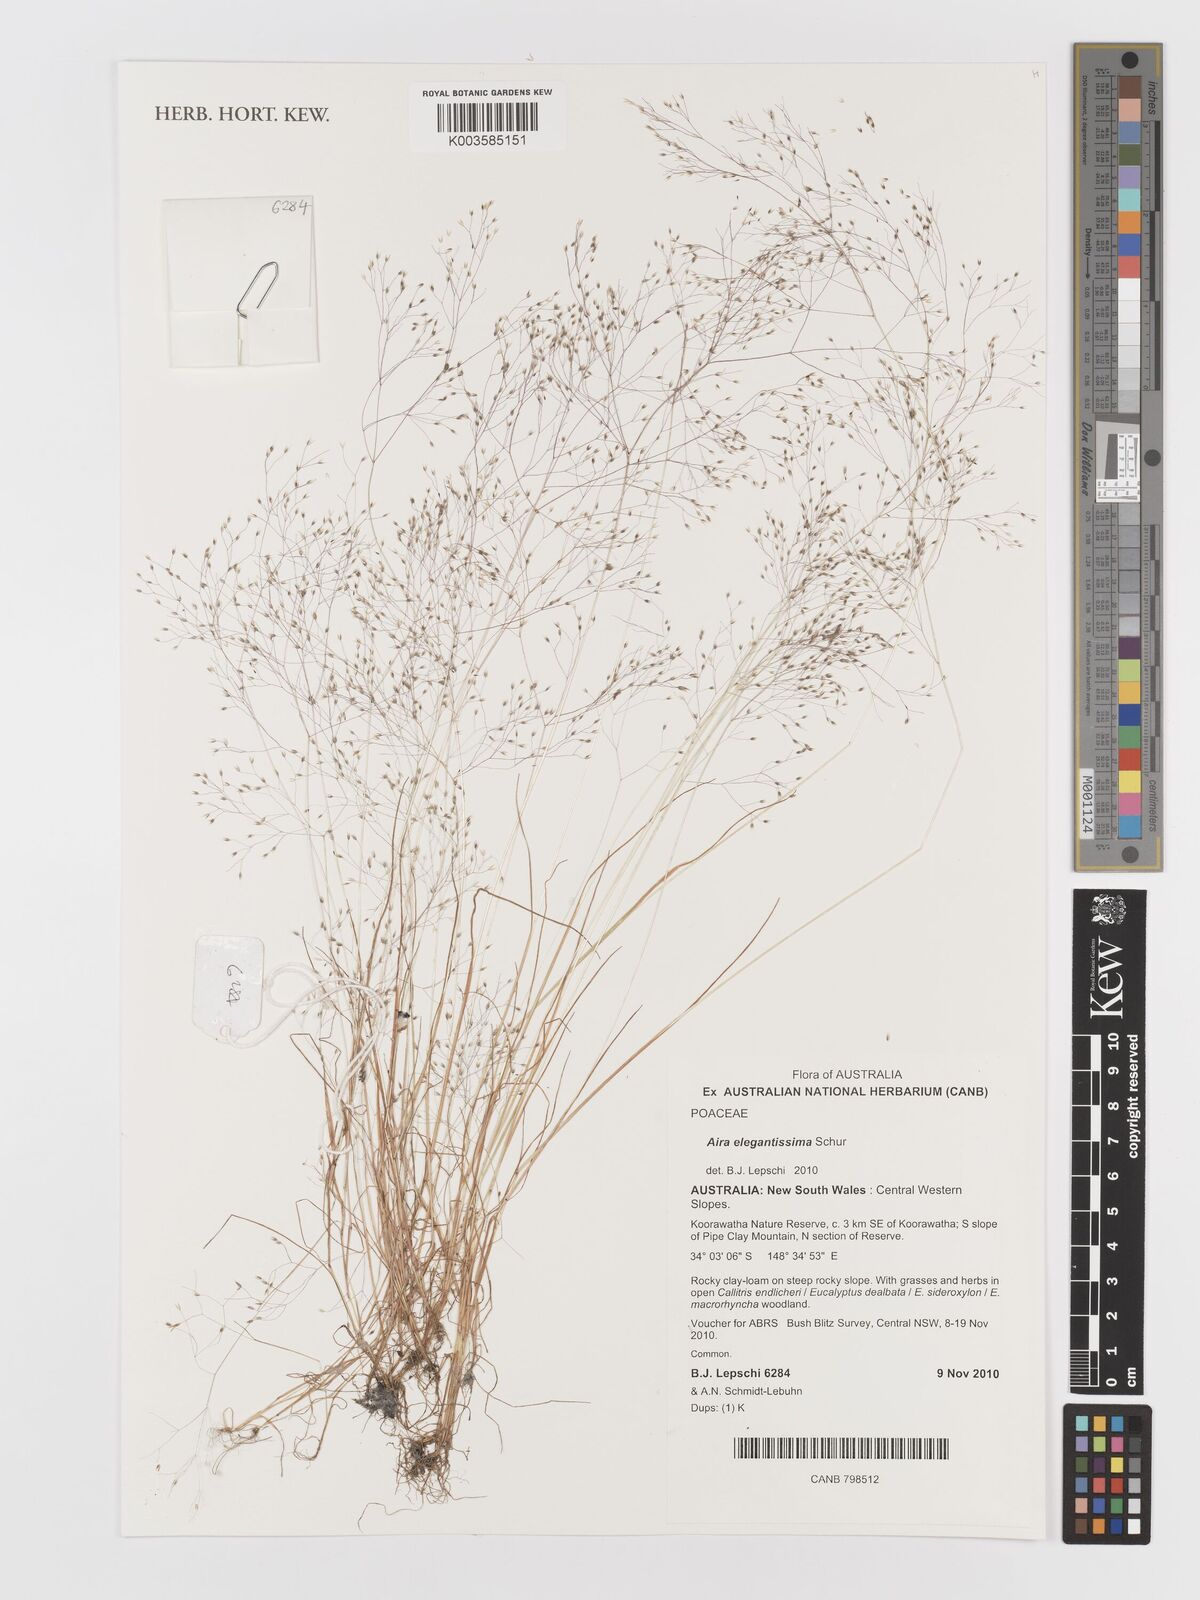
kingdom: Plantae
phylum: Tracheophyta
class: Liliopsida
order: Poales
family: Poaceae
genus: Aira
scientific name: Aira elegans
